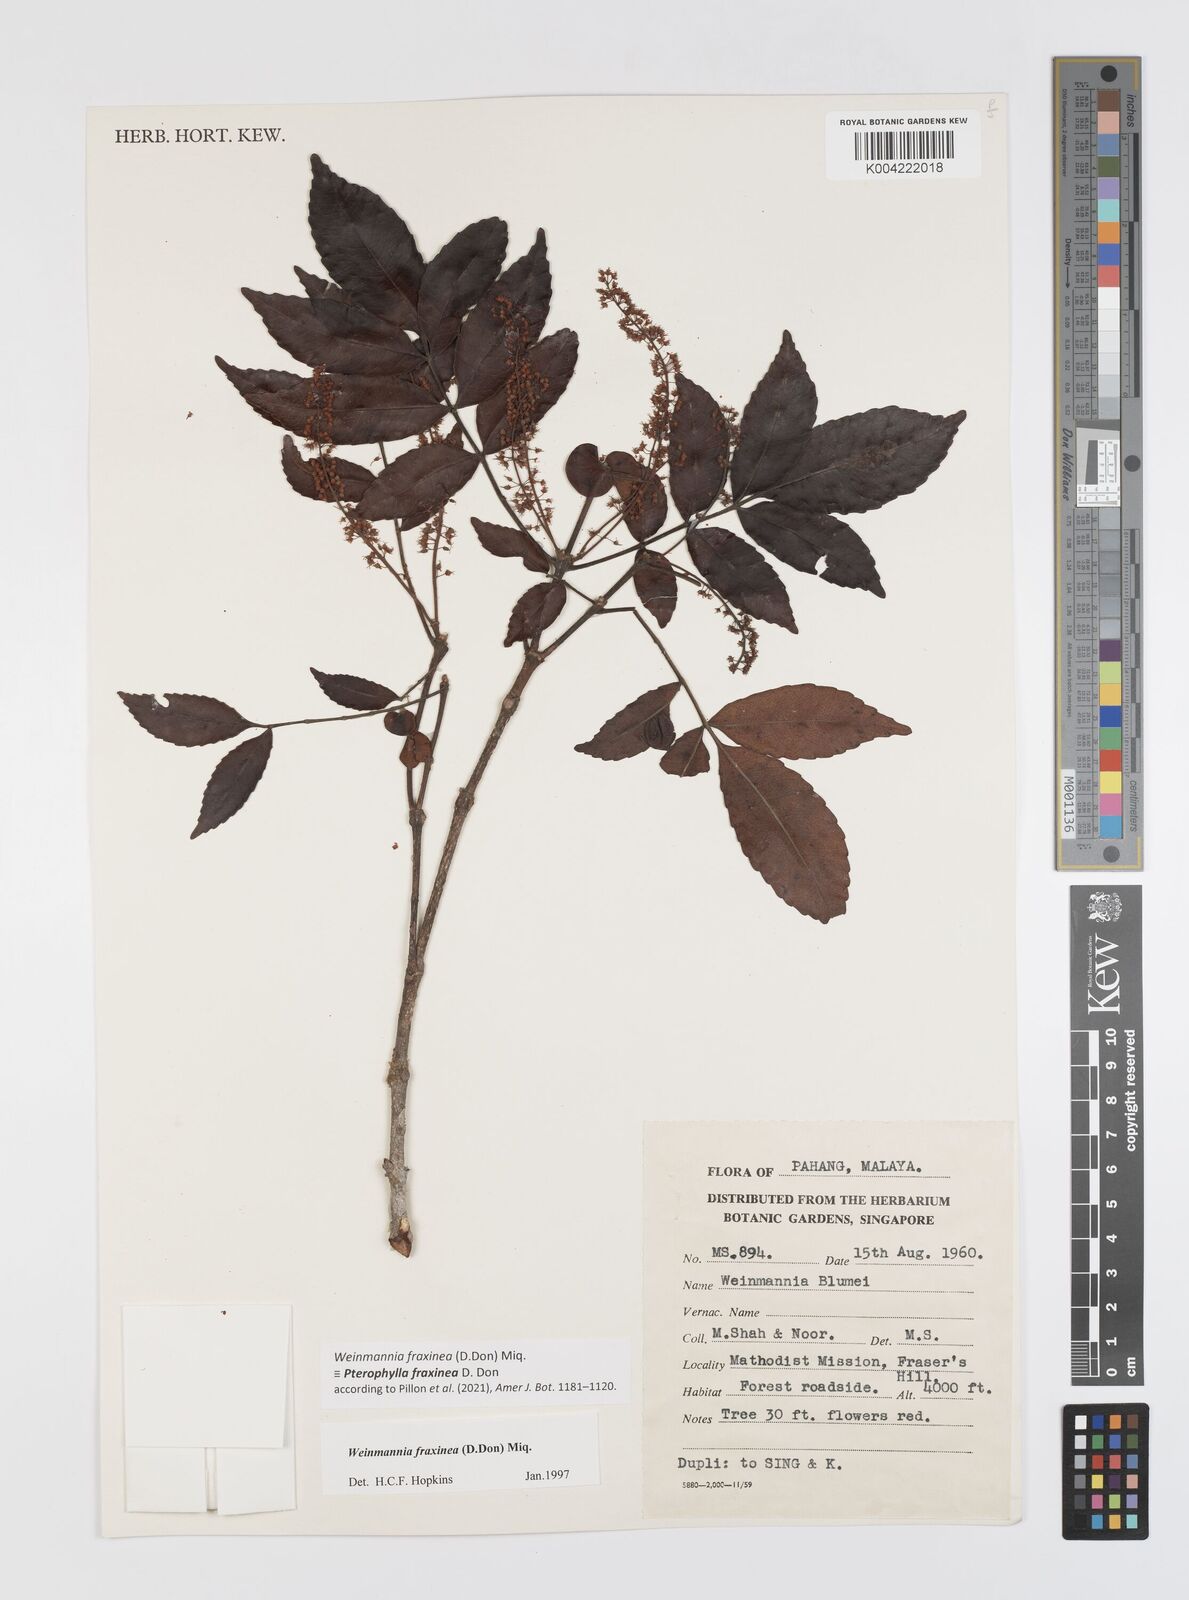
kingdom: Plantae
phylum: Tracheophyta
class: Magnoliopsida
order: Oxalidales
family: Cunoniaceae
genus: Pterophylla
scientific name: Pterophylla fraxinea
